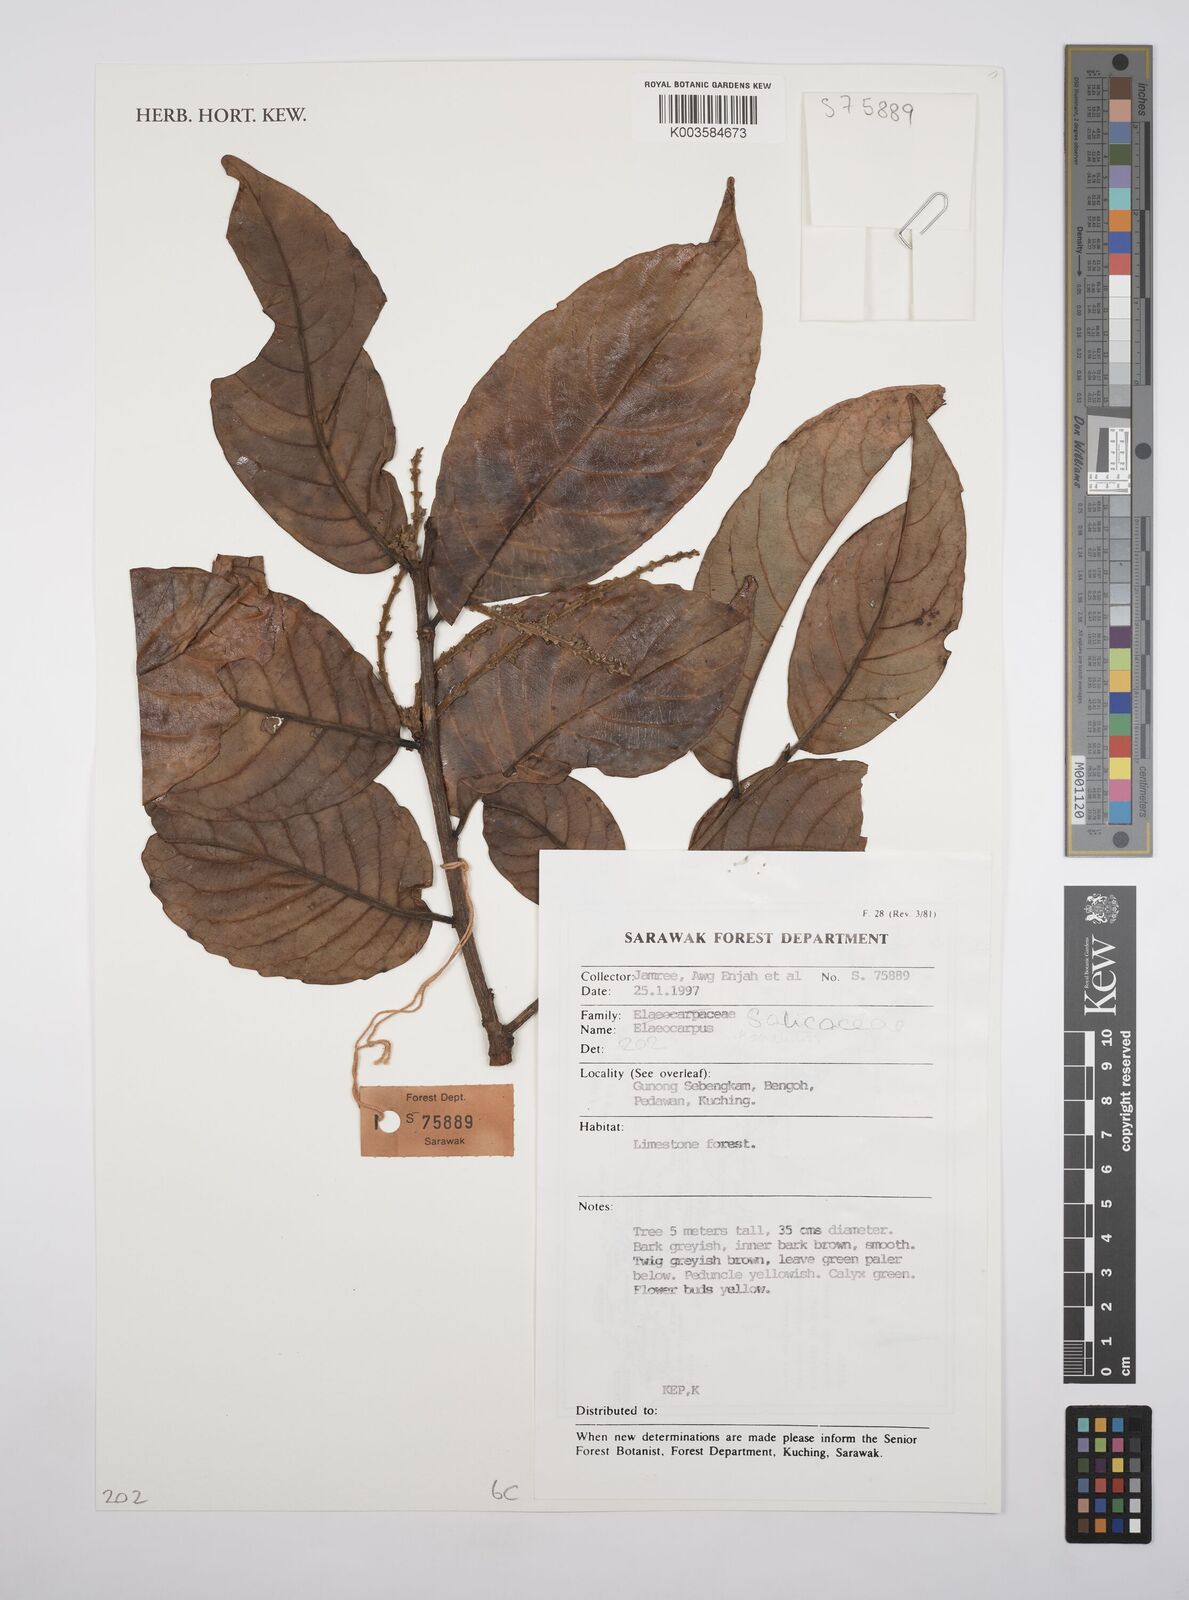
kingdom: Plantae
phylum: Tracheophyta
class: Magnoliopsida
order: Malpighiales
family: Salicaceae
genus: Homalium
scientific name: Homalium
